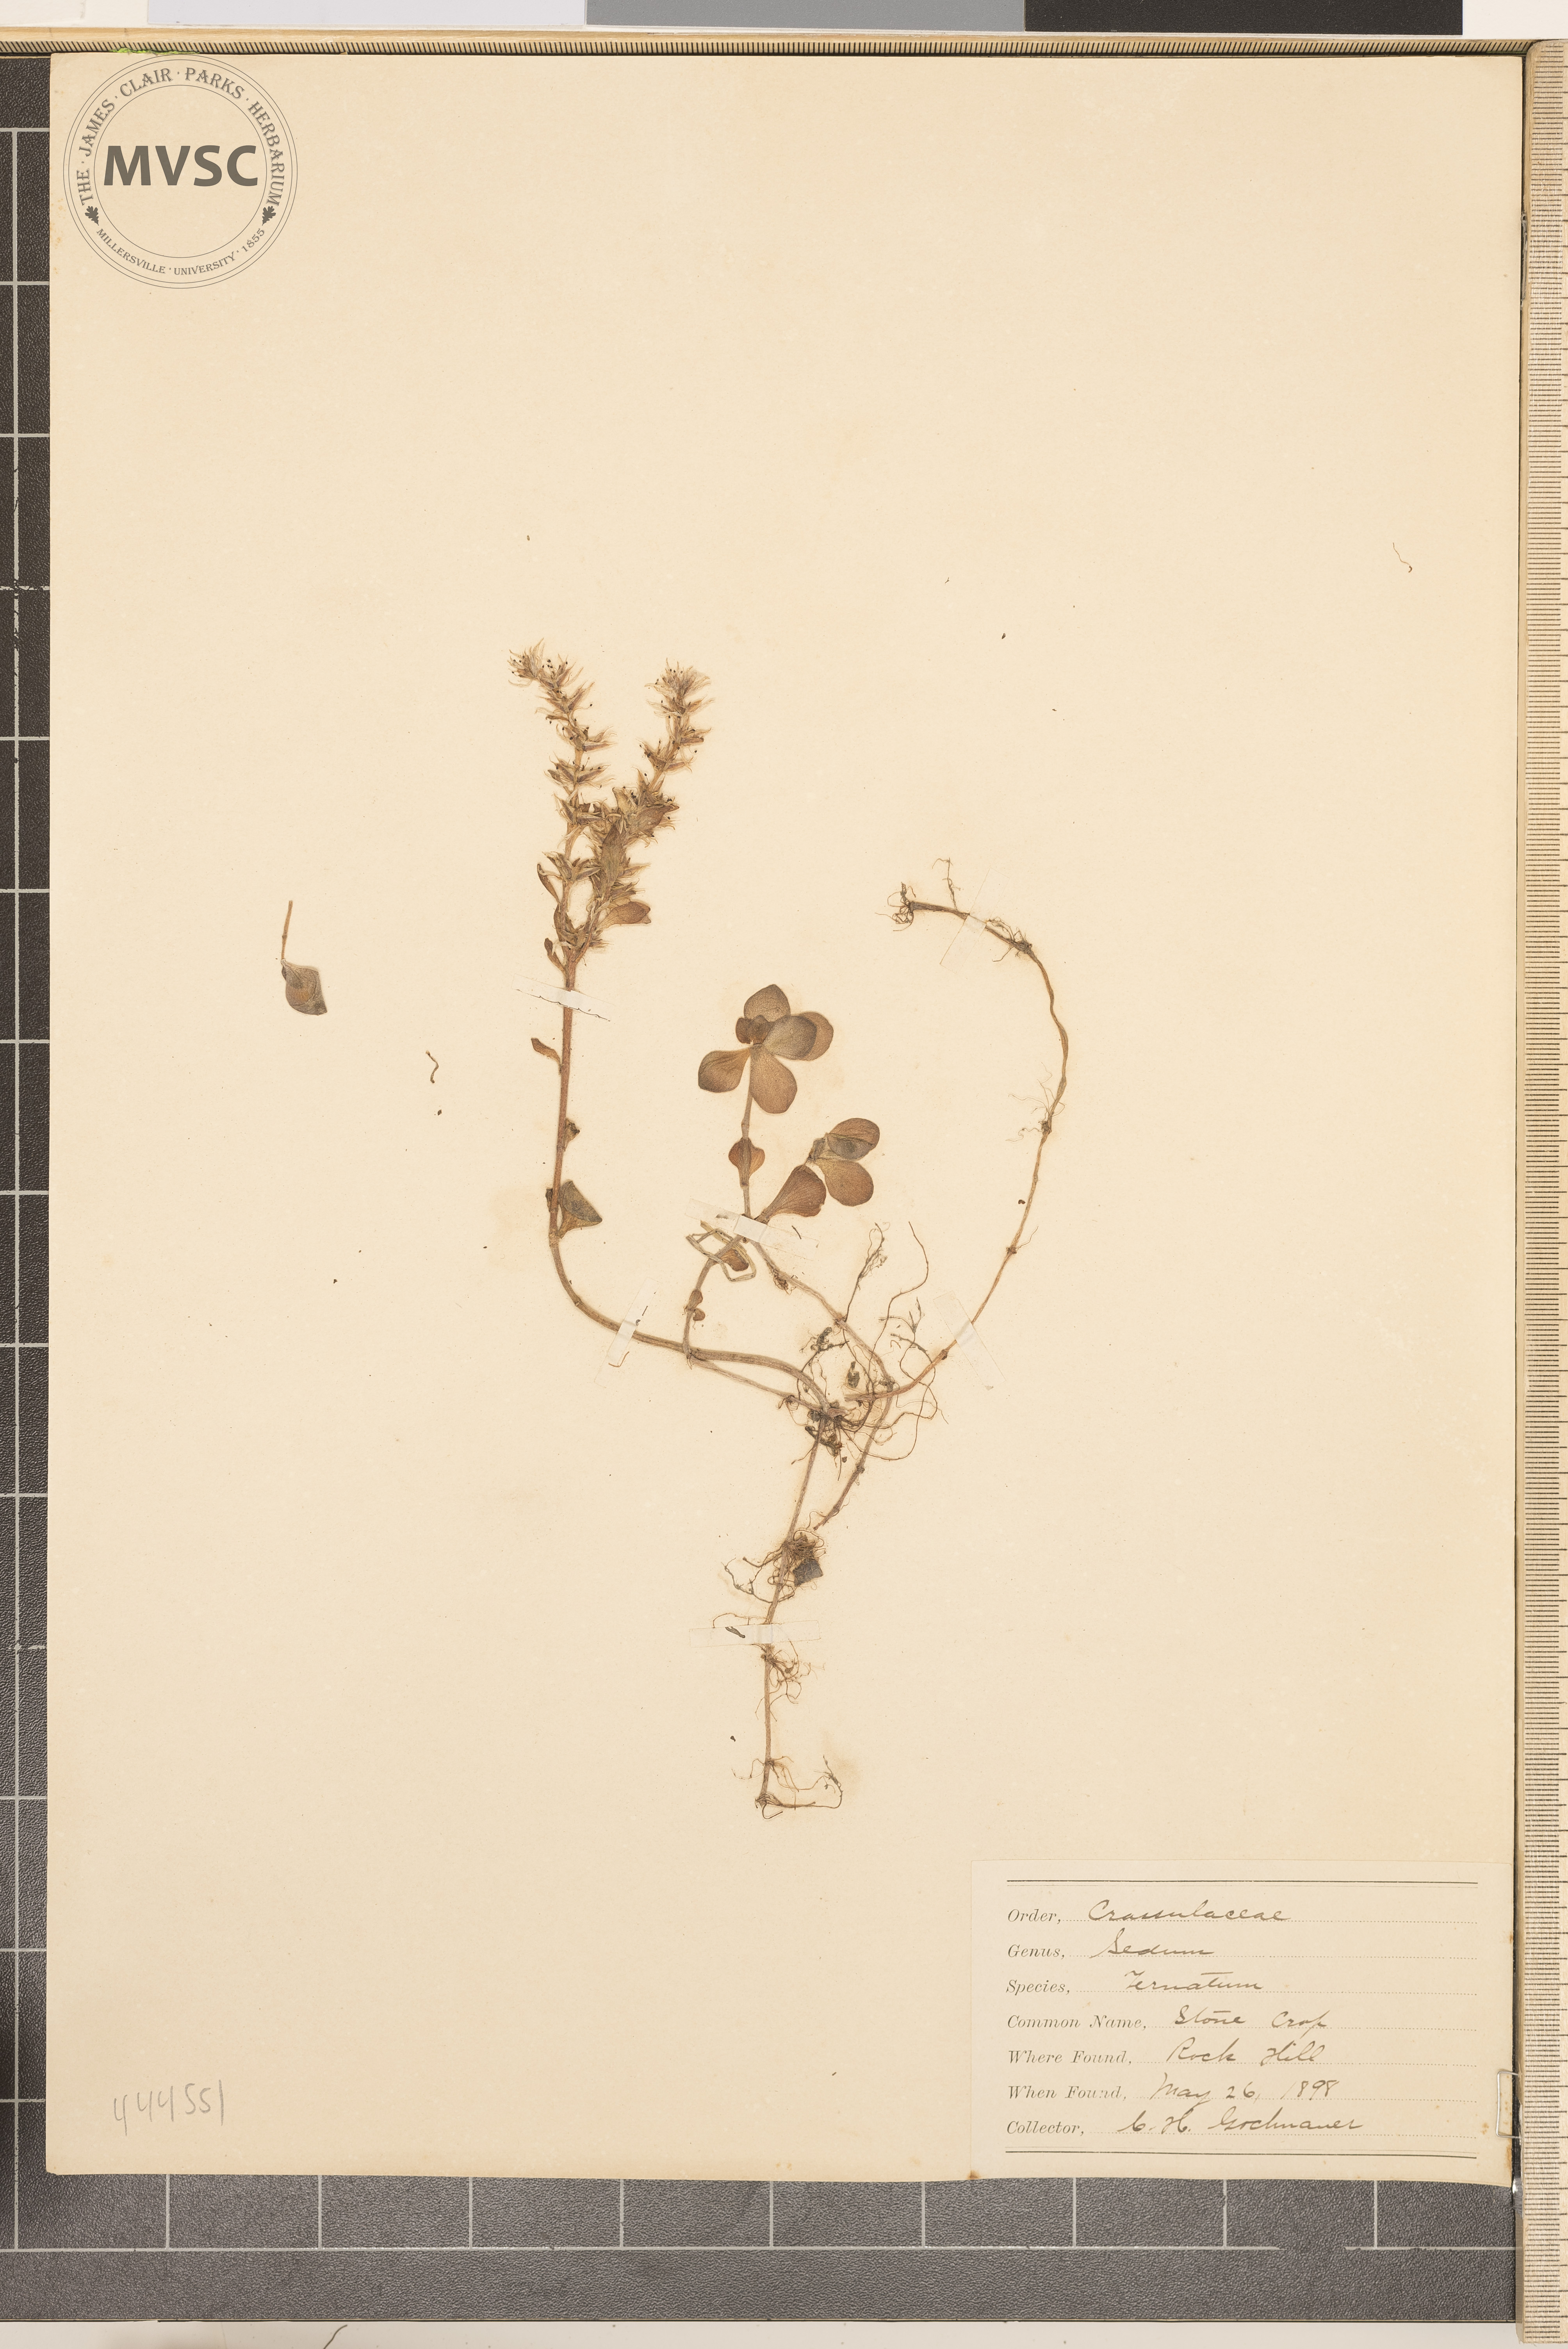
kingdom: Plantae
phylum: Tracheophyta
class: Magnoliopsida
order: Saxifragales
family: Crassulaceae
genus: Sedum
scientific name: Sedum ternatum
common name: Stonecrop
